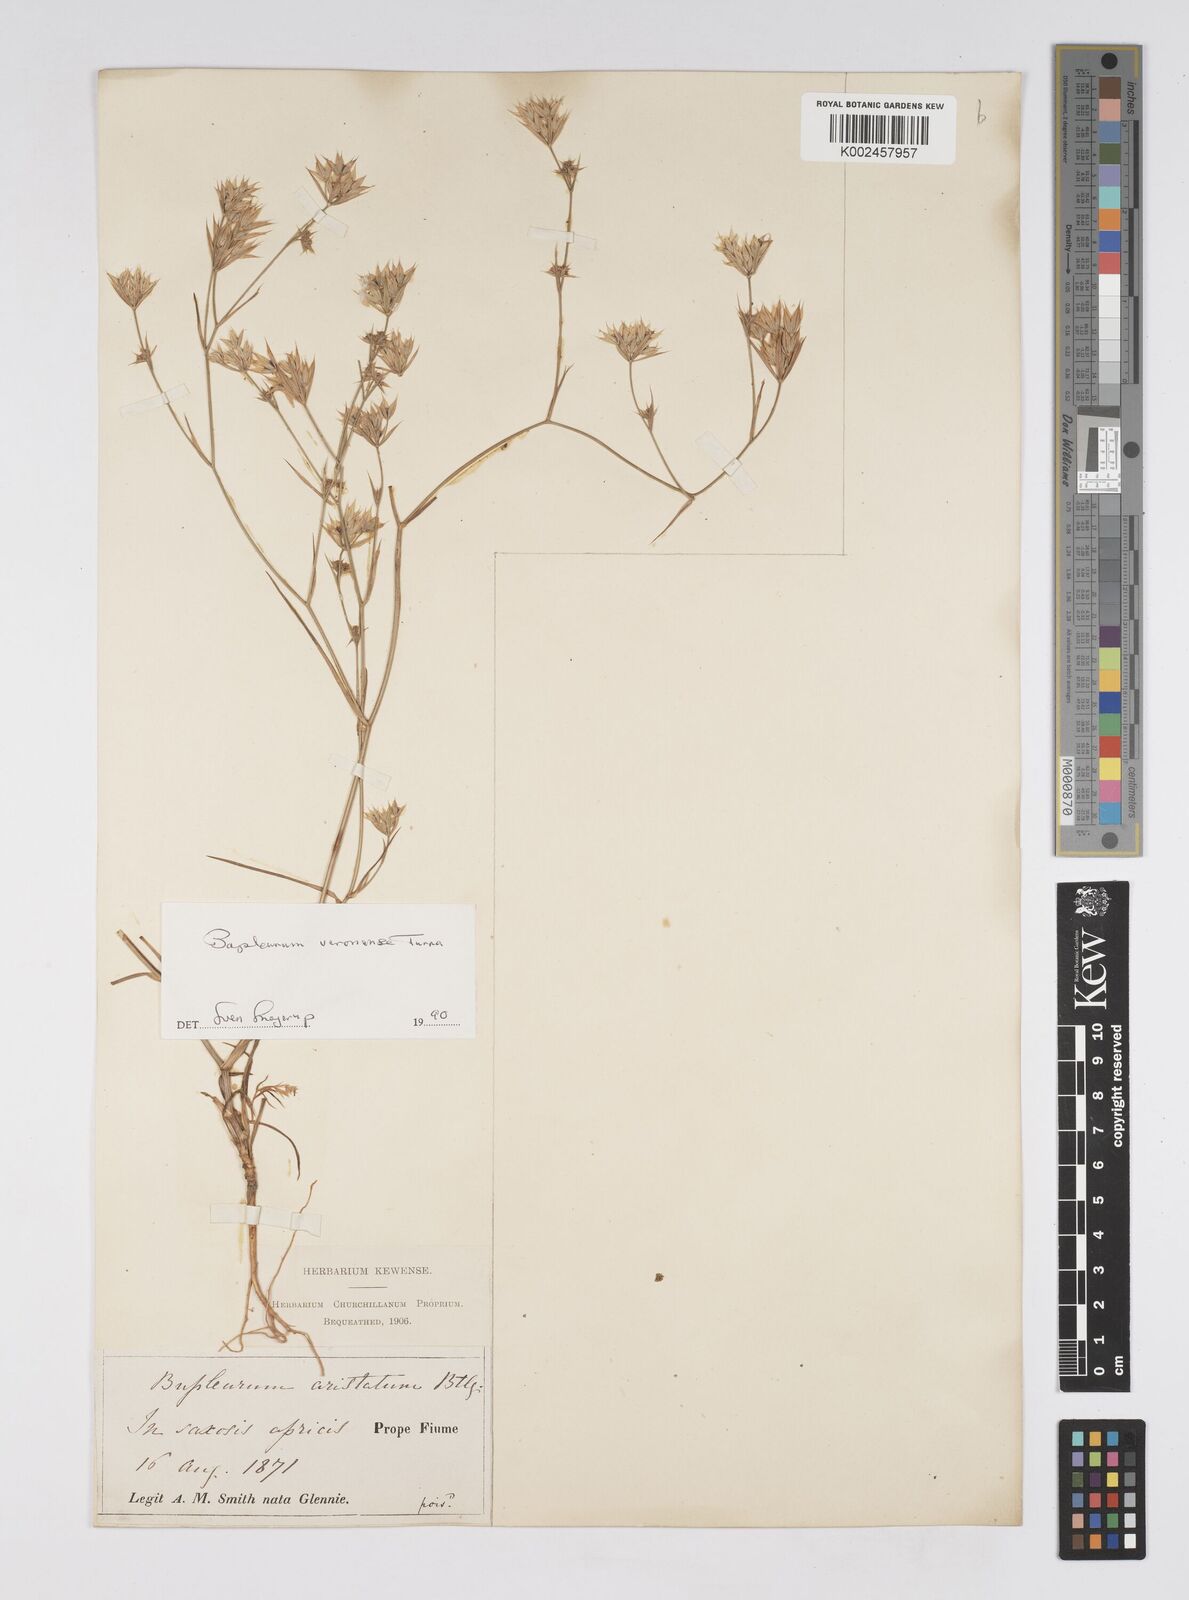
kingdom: Plantae
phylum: Tracheophyta
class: Magnoliopsida
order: Apiales
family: Apiaceae
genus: Bupleurum
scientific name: Bupleurum glumaceum
